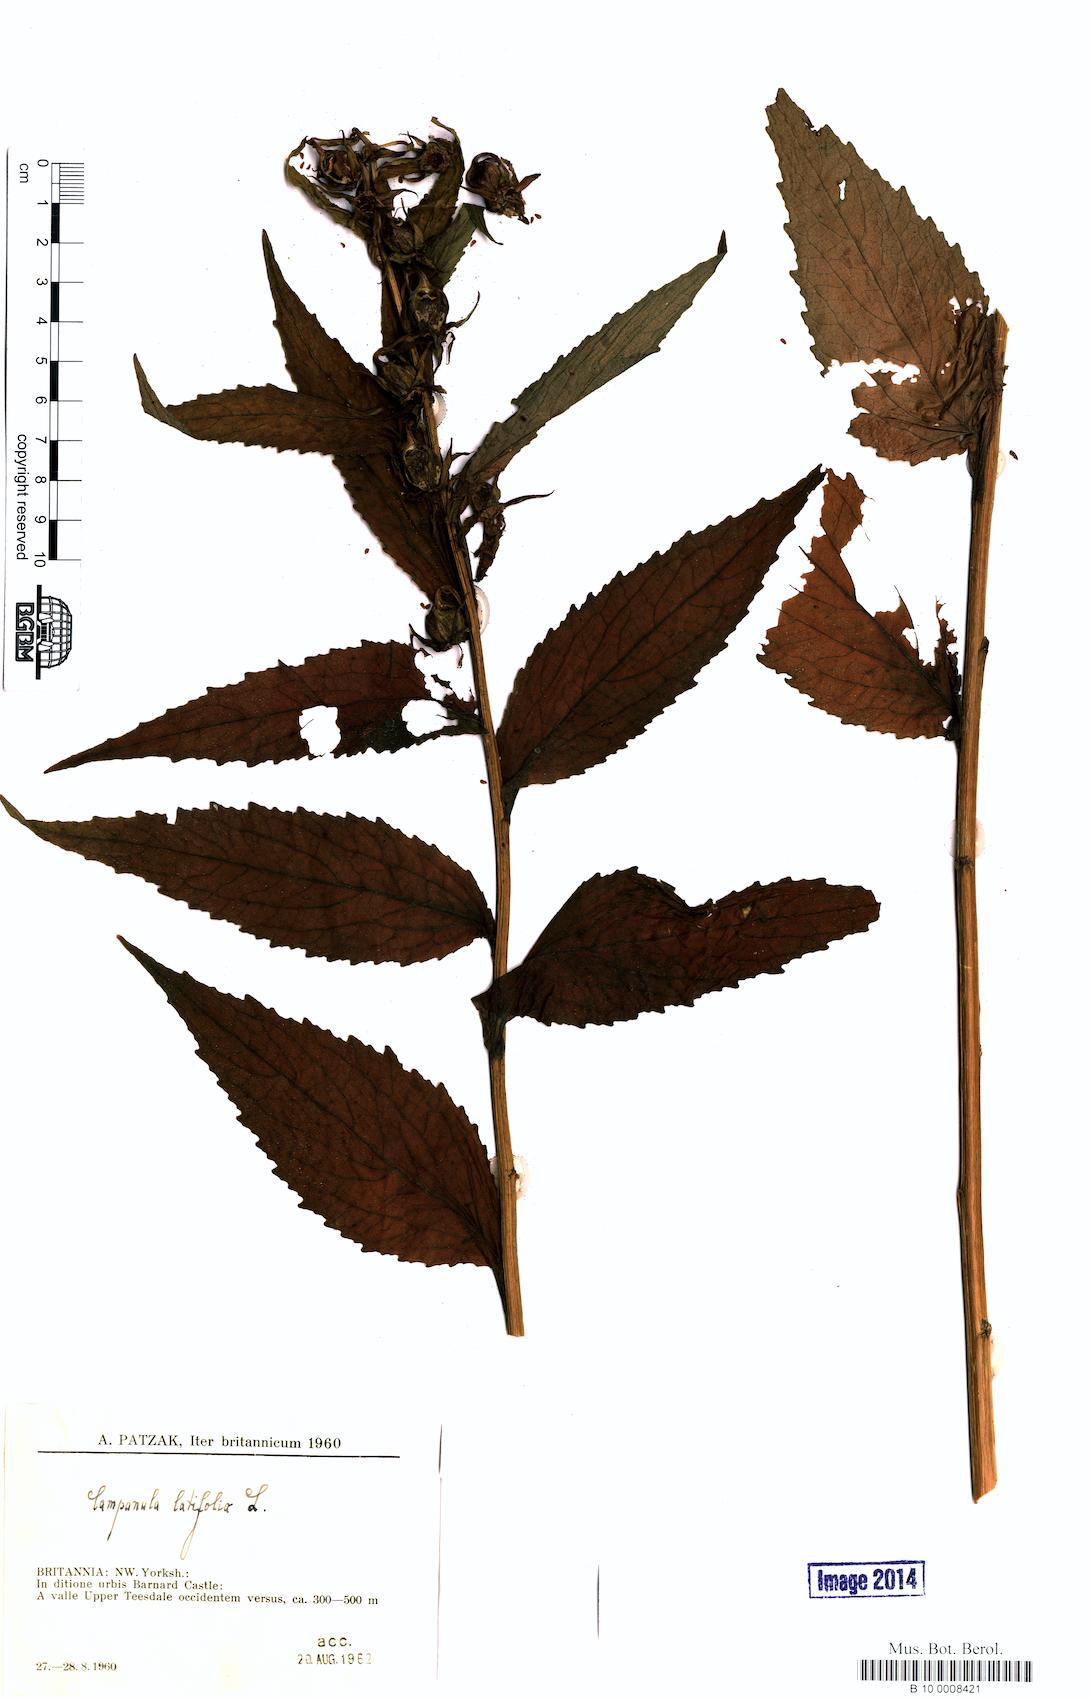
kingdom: Plantae
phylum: Tracheophyta
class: Magnoliopsida
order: Asterales
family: Campanulaceae
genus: Campanula
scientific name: Campanula latifolia
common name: Giant bellflower
